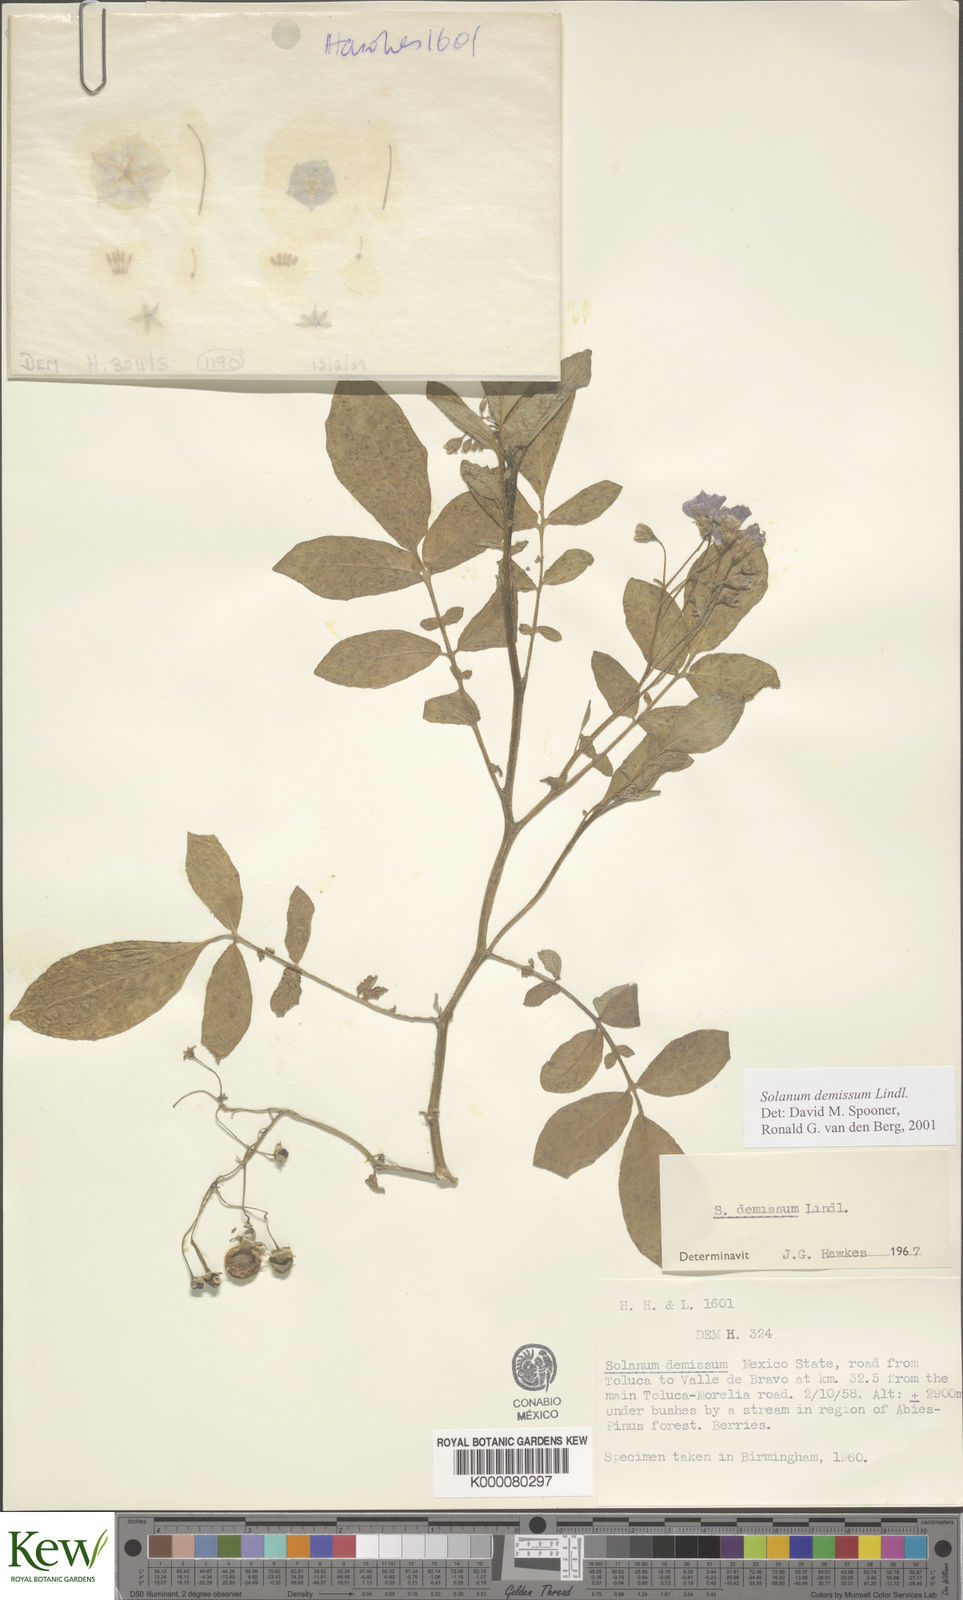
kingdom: Plantae
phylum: Tracheophyta
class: Magnoliopsida
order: Solanales
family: Solanaceae
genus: Solanum
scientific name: Solanum demissum
